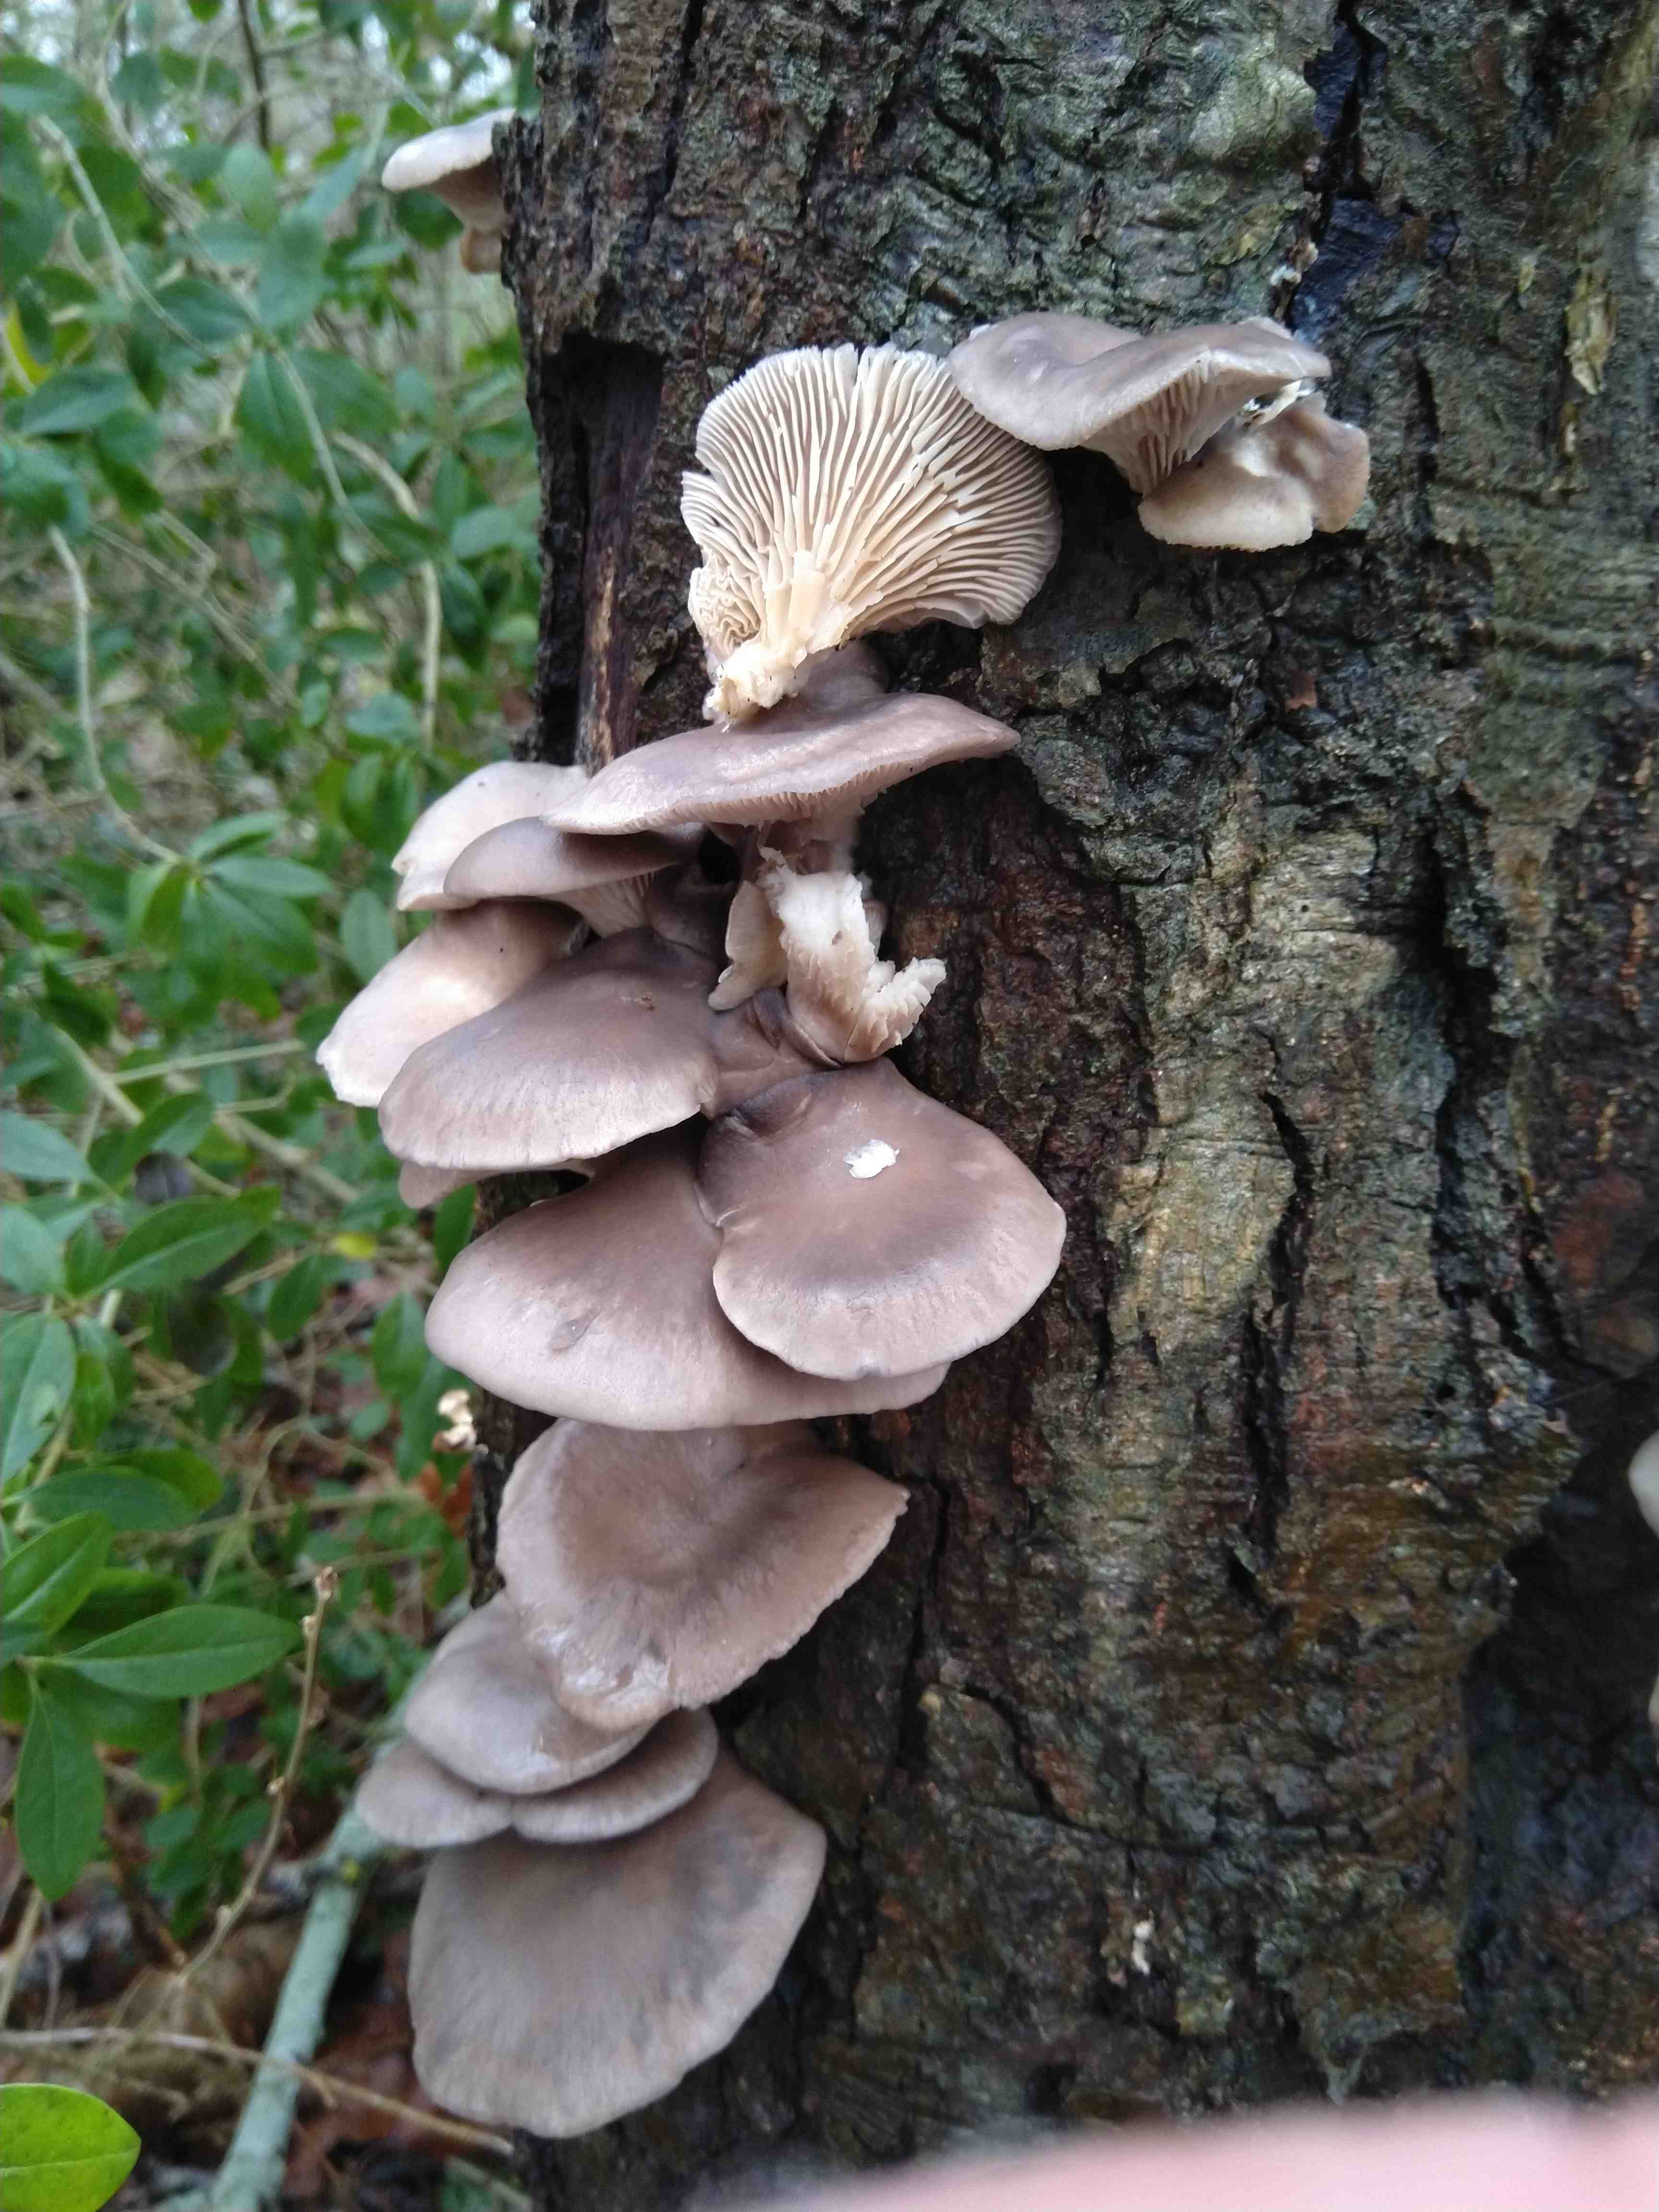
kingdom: Fungi
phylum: Basidiomycota
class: Agaricomycetes
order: Agaricales
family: Pleurotaceae
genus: Pleurotus
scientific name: Pleurotus ostreatus
